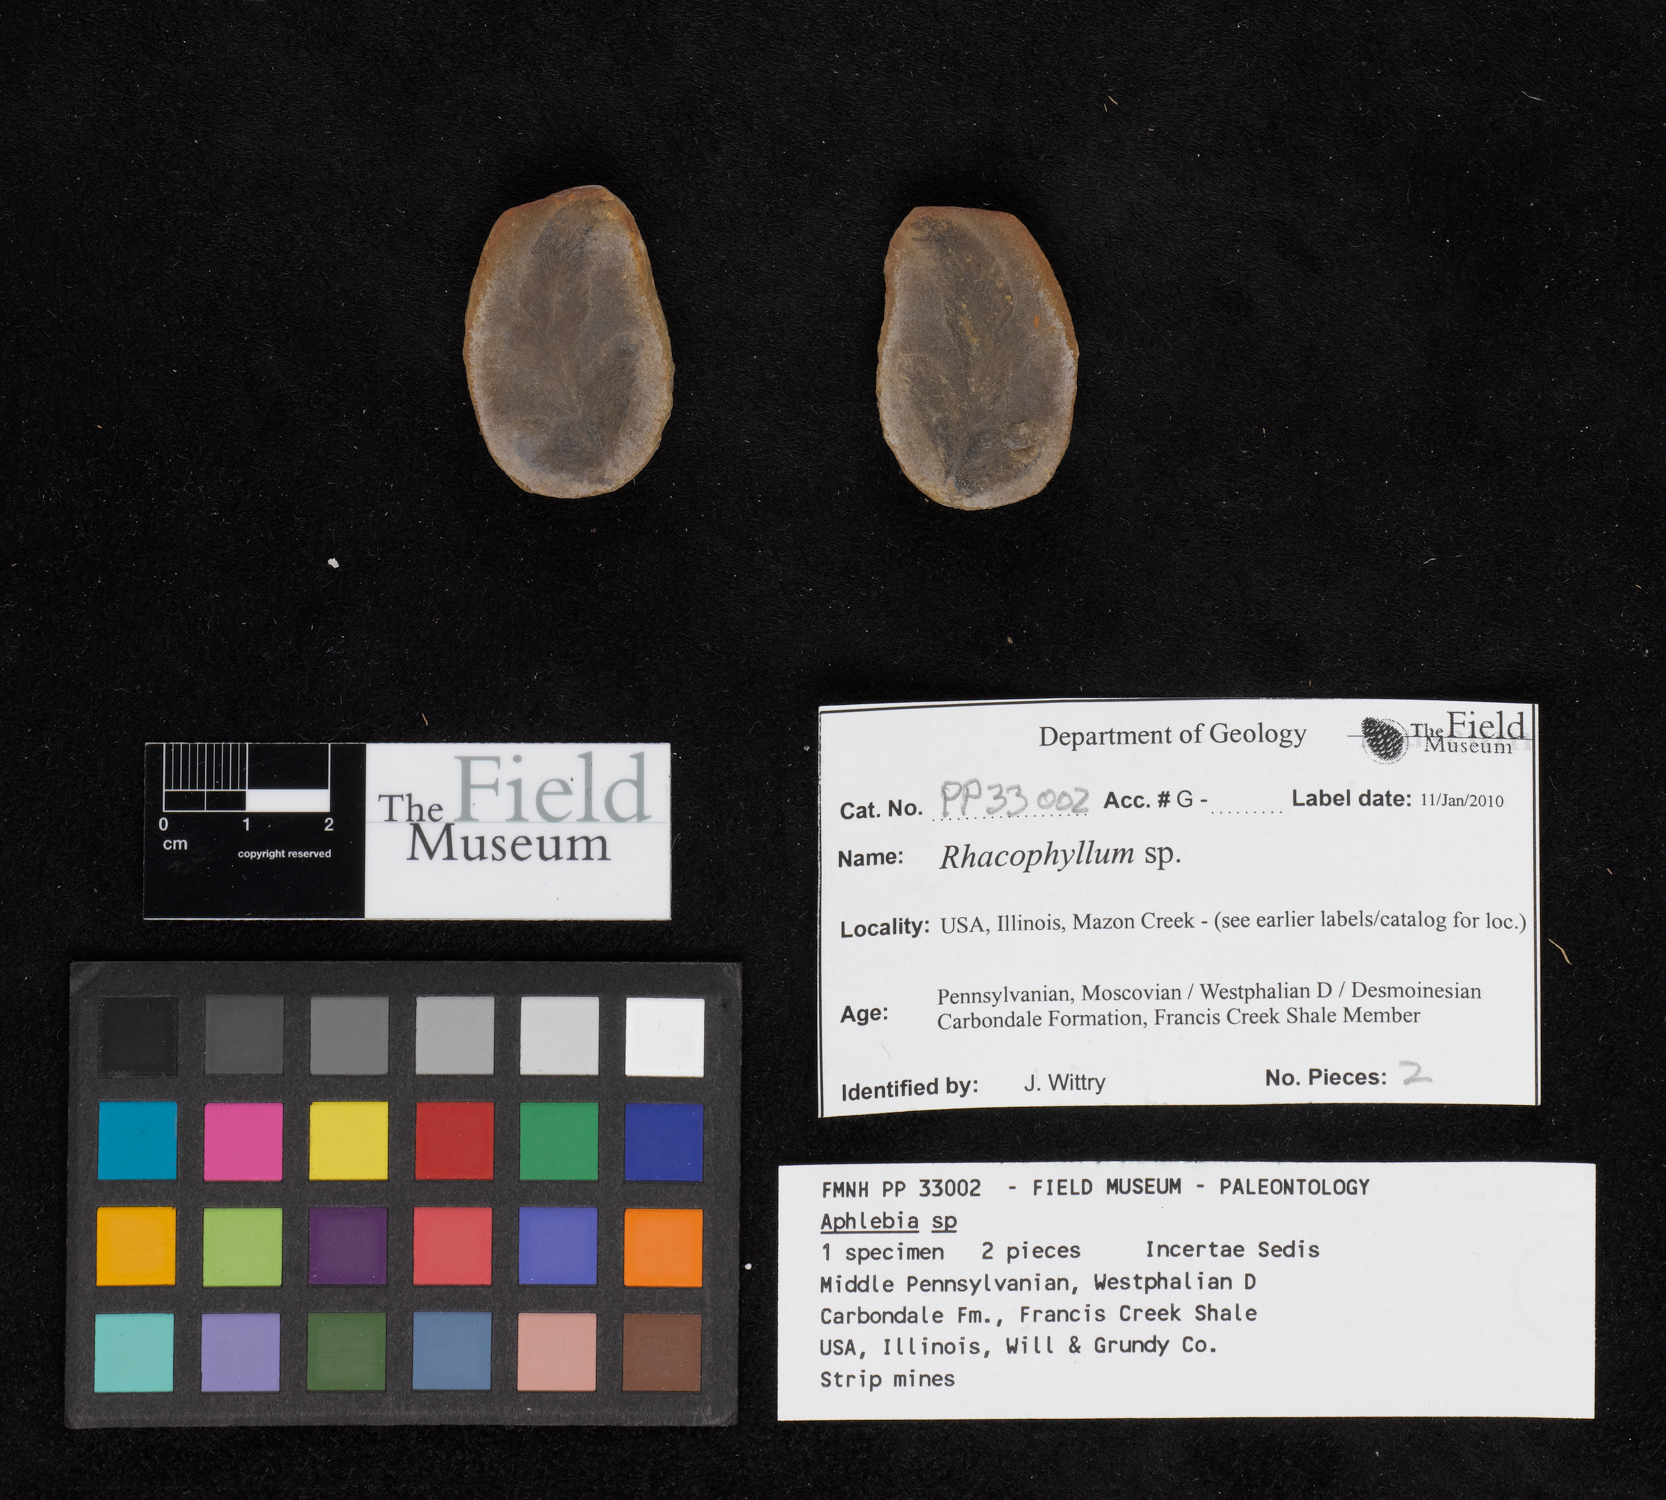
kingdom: Plantae
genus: Rhacophyllum
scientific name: Rhacophyllum
